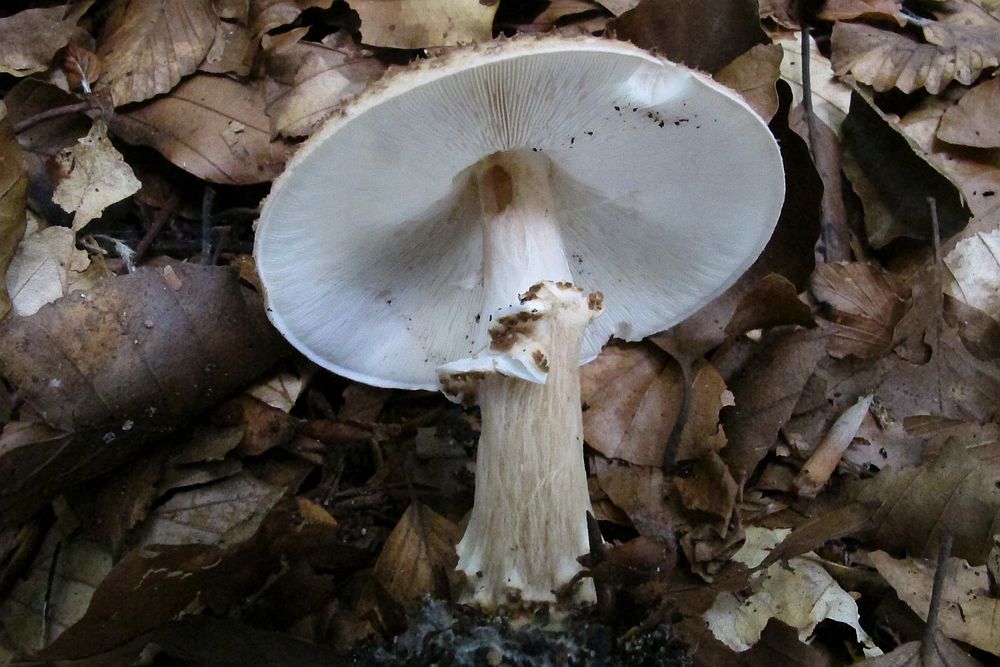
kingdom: Fungi
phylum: Basidiomycota
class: Agaricomycetes
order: Agaricales
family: Agaricaceae
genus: Echinoderma
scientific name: Echinoderma asperum
